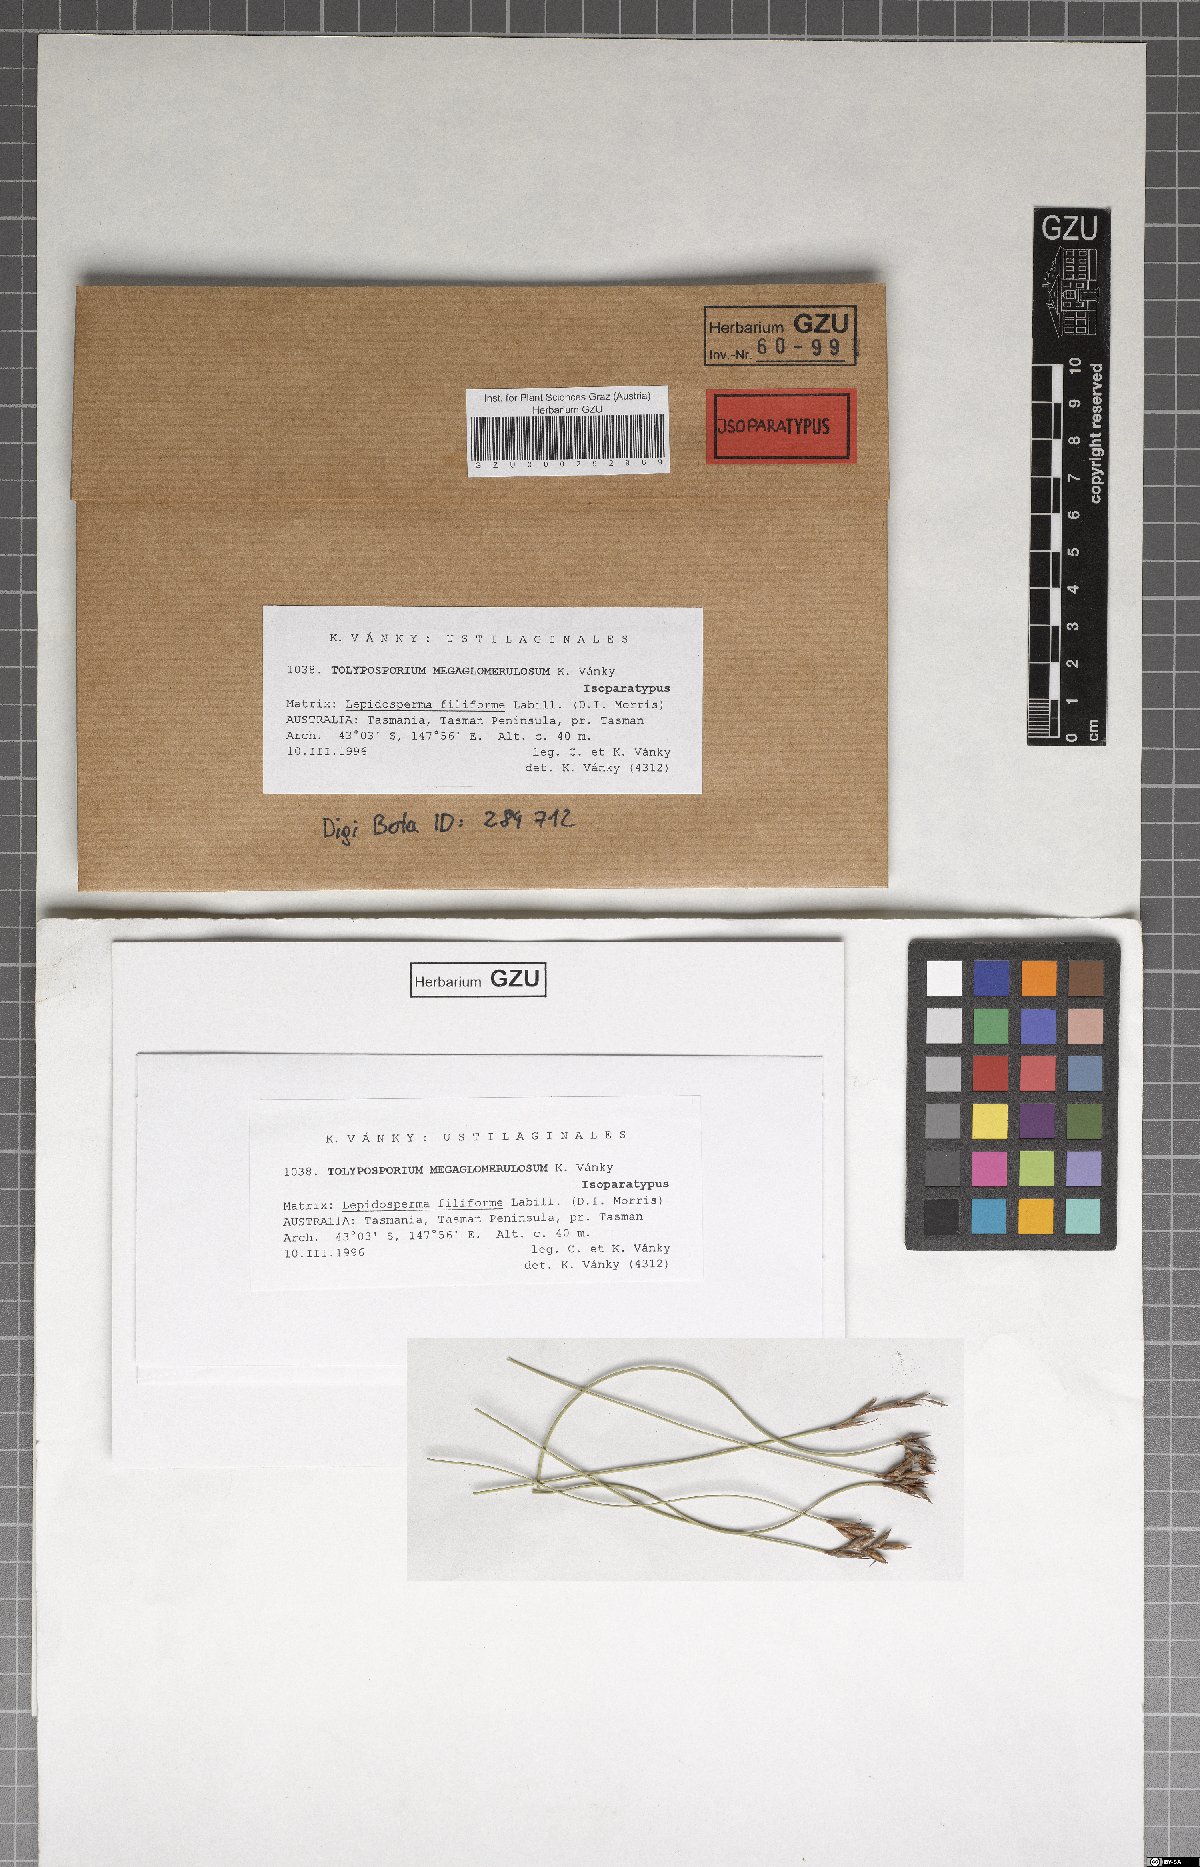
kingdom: Fungi
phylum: Basidiomycota
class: Ustilaginomycetes
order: Ustilaginales
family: Anthracoideaceae
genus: Moreaua
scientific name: Moreaua megaglomerulosa
